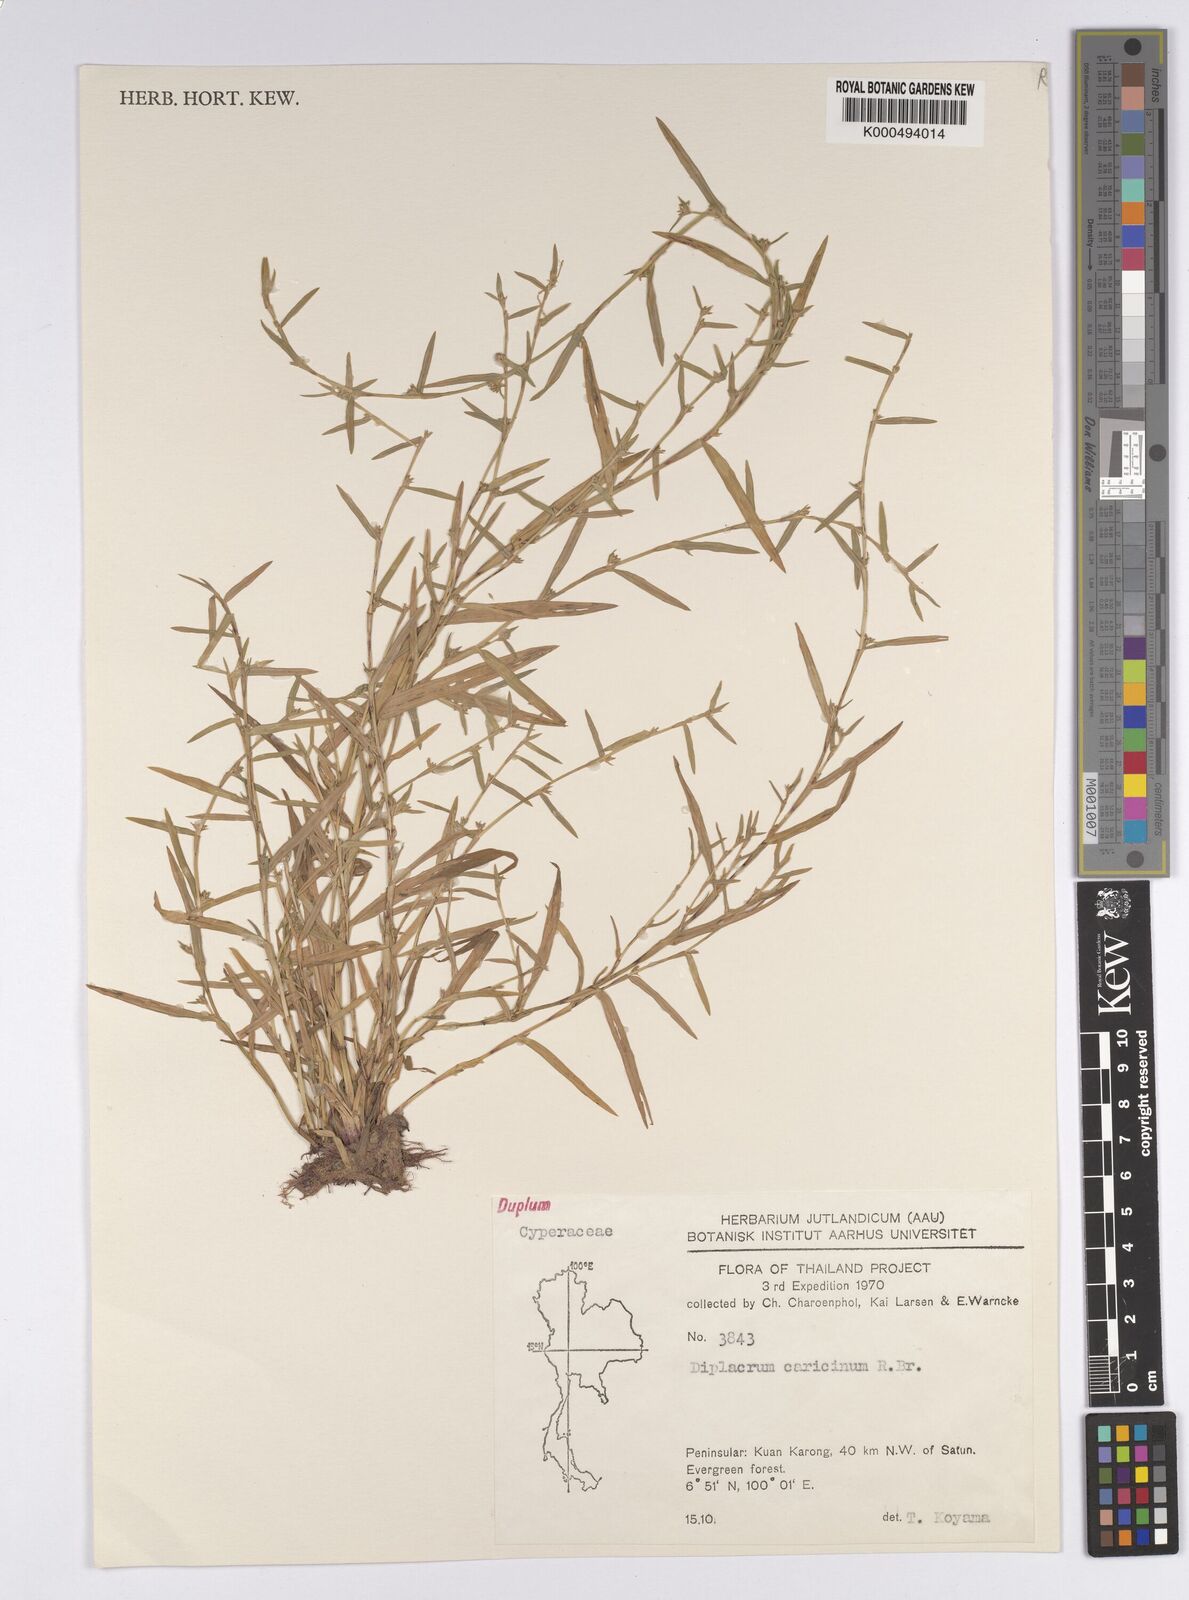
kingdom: Plantae
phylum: Tracheophyta
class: Liliopsida
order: Poales
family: Cyperaceae
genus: Diplacrum
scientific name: Diplacrum caricinum
